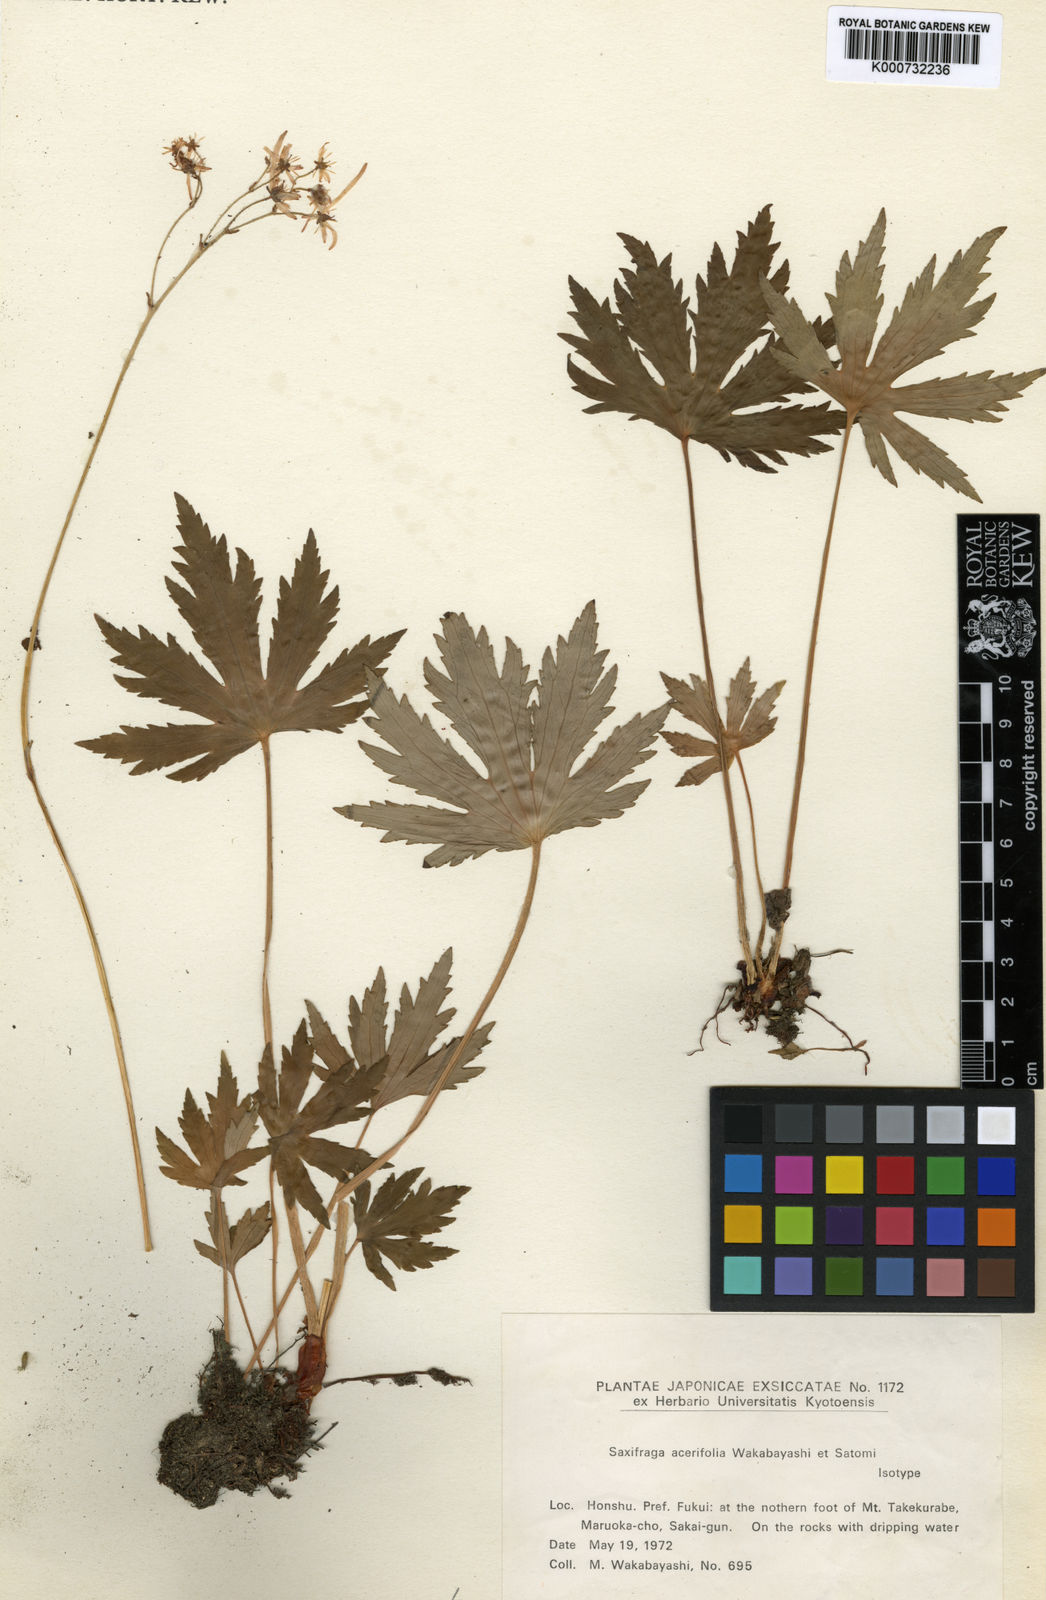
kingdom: Plantae
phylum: Tracheophyta
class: Magnoliopsida
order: Saxifragales
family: Saxifragaceae
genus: Saxifraga
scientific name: Saxifraga acerifolia
